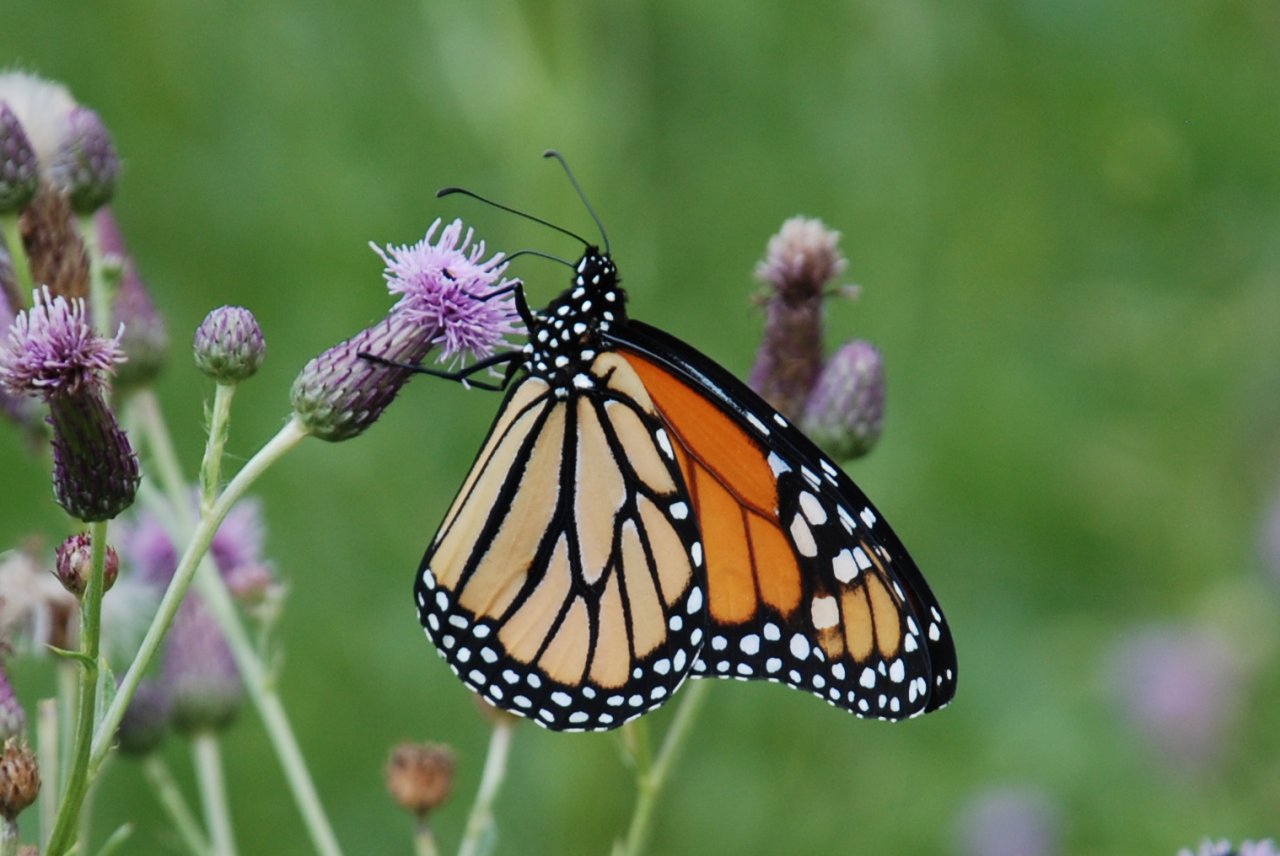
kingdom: Animalia
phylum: Arthropoda
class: Insecta
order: Lepidoptera
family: Nymphalidae
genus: Danaus
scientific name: Danaus plexippus
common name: Monarch
